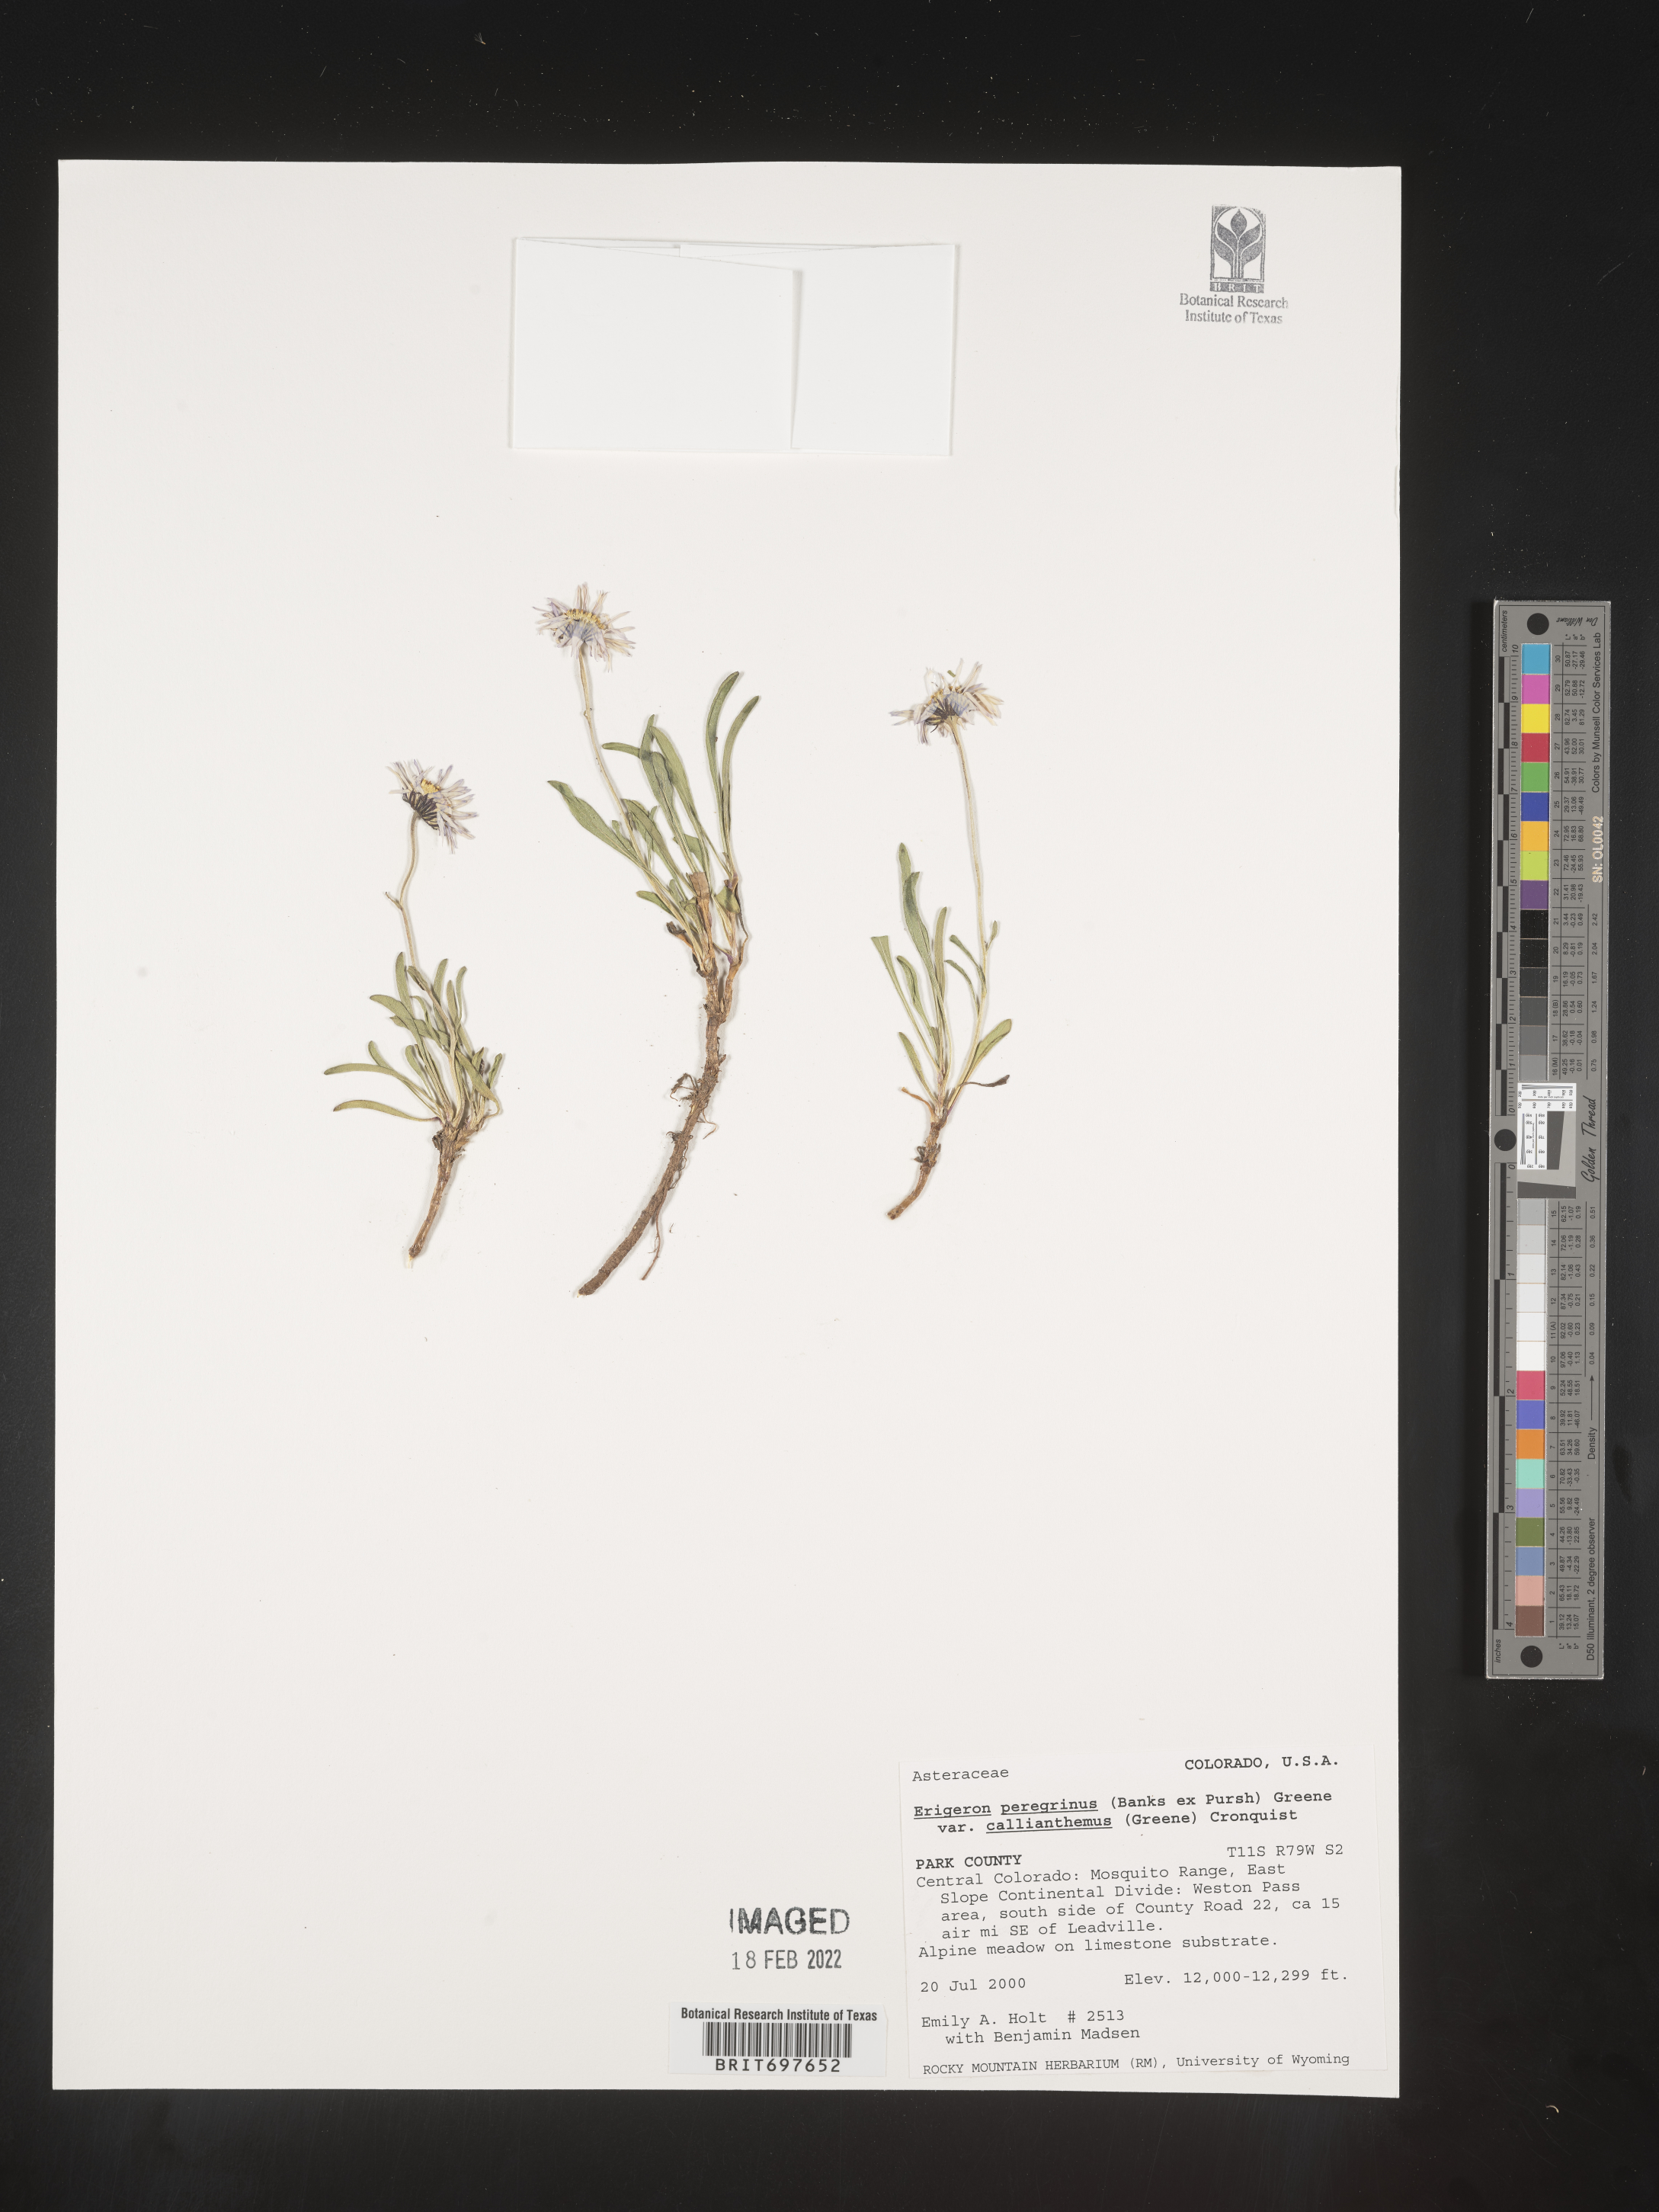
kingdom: Plantae
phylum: Tracheophyta
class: Magnoliopsida
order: Asterales
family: Asteraceae
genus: Erigeron
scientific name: Erigeron peregrinus
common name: Peregrine fleabane
